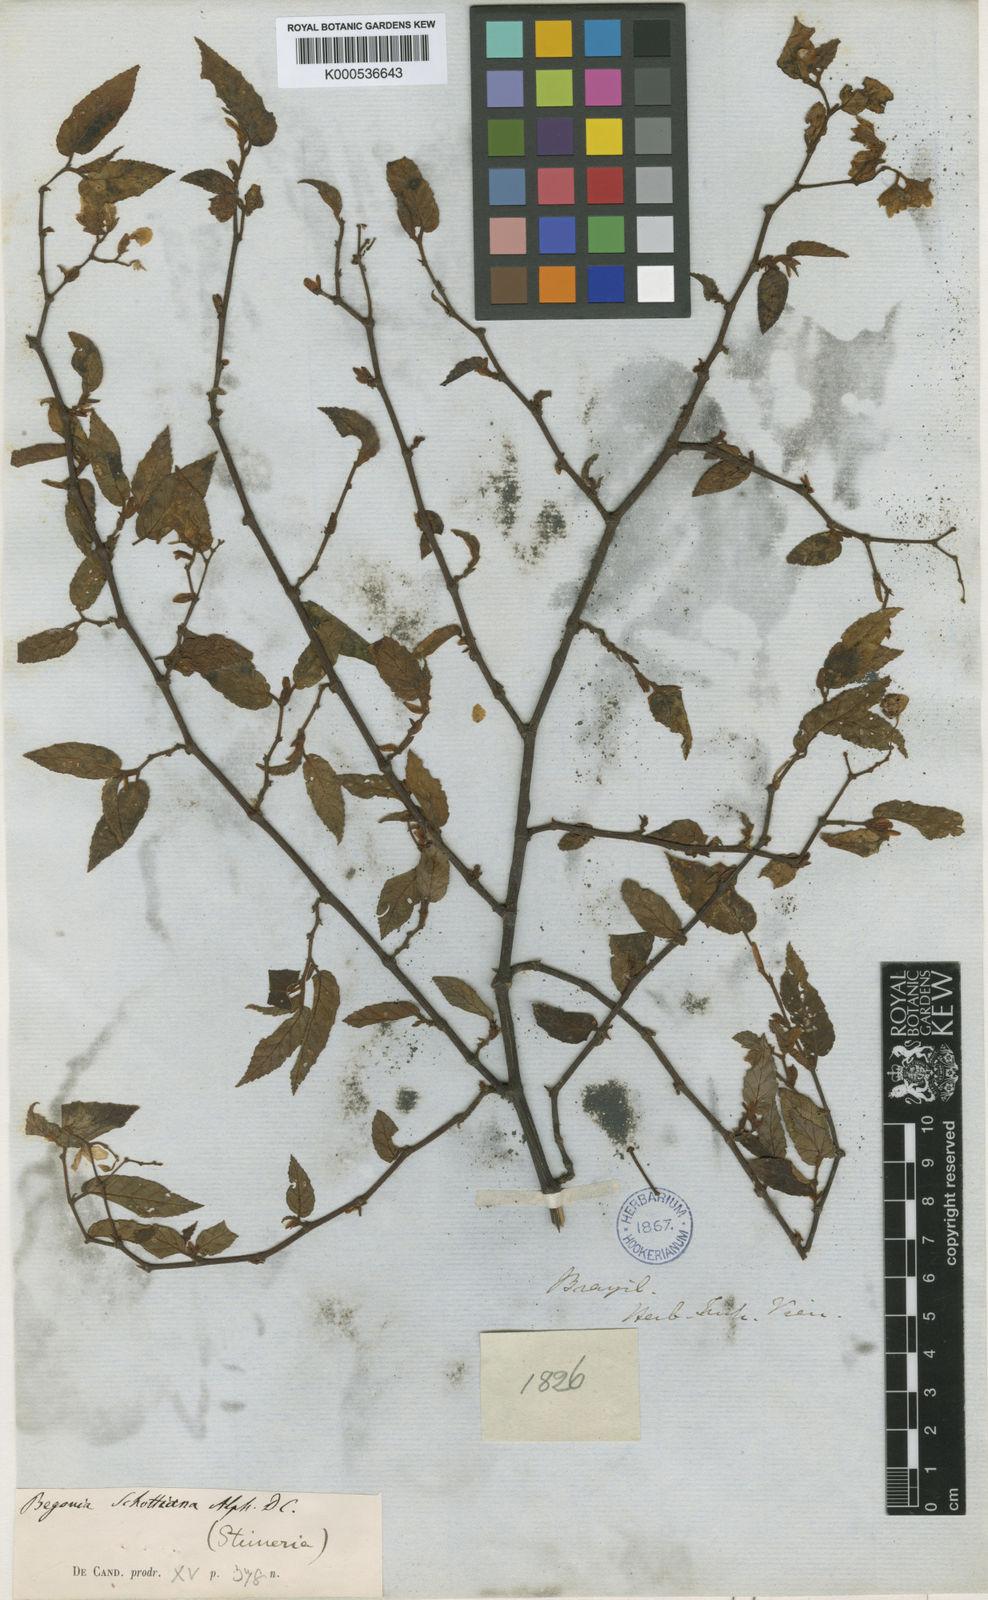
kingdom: Plantae
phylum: Tracheophyta
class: Magnoliopsida
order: Cucurbitales
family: Begoniaceae
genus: Begonia
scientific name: Begonia
